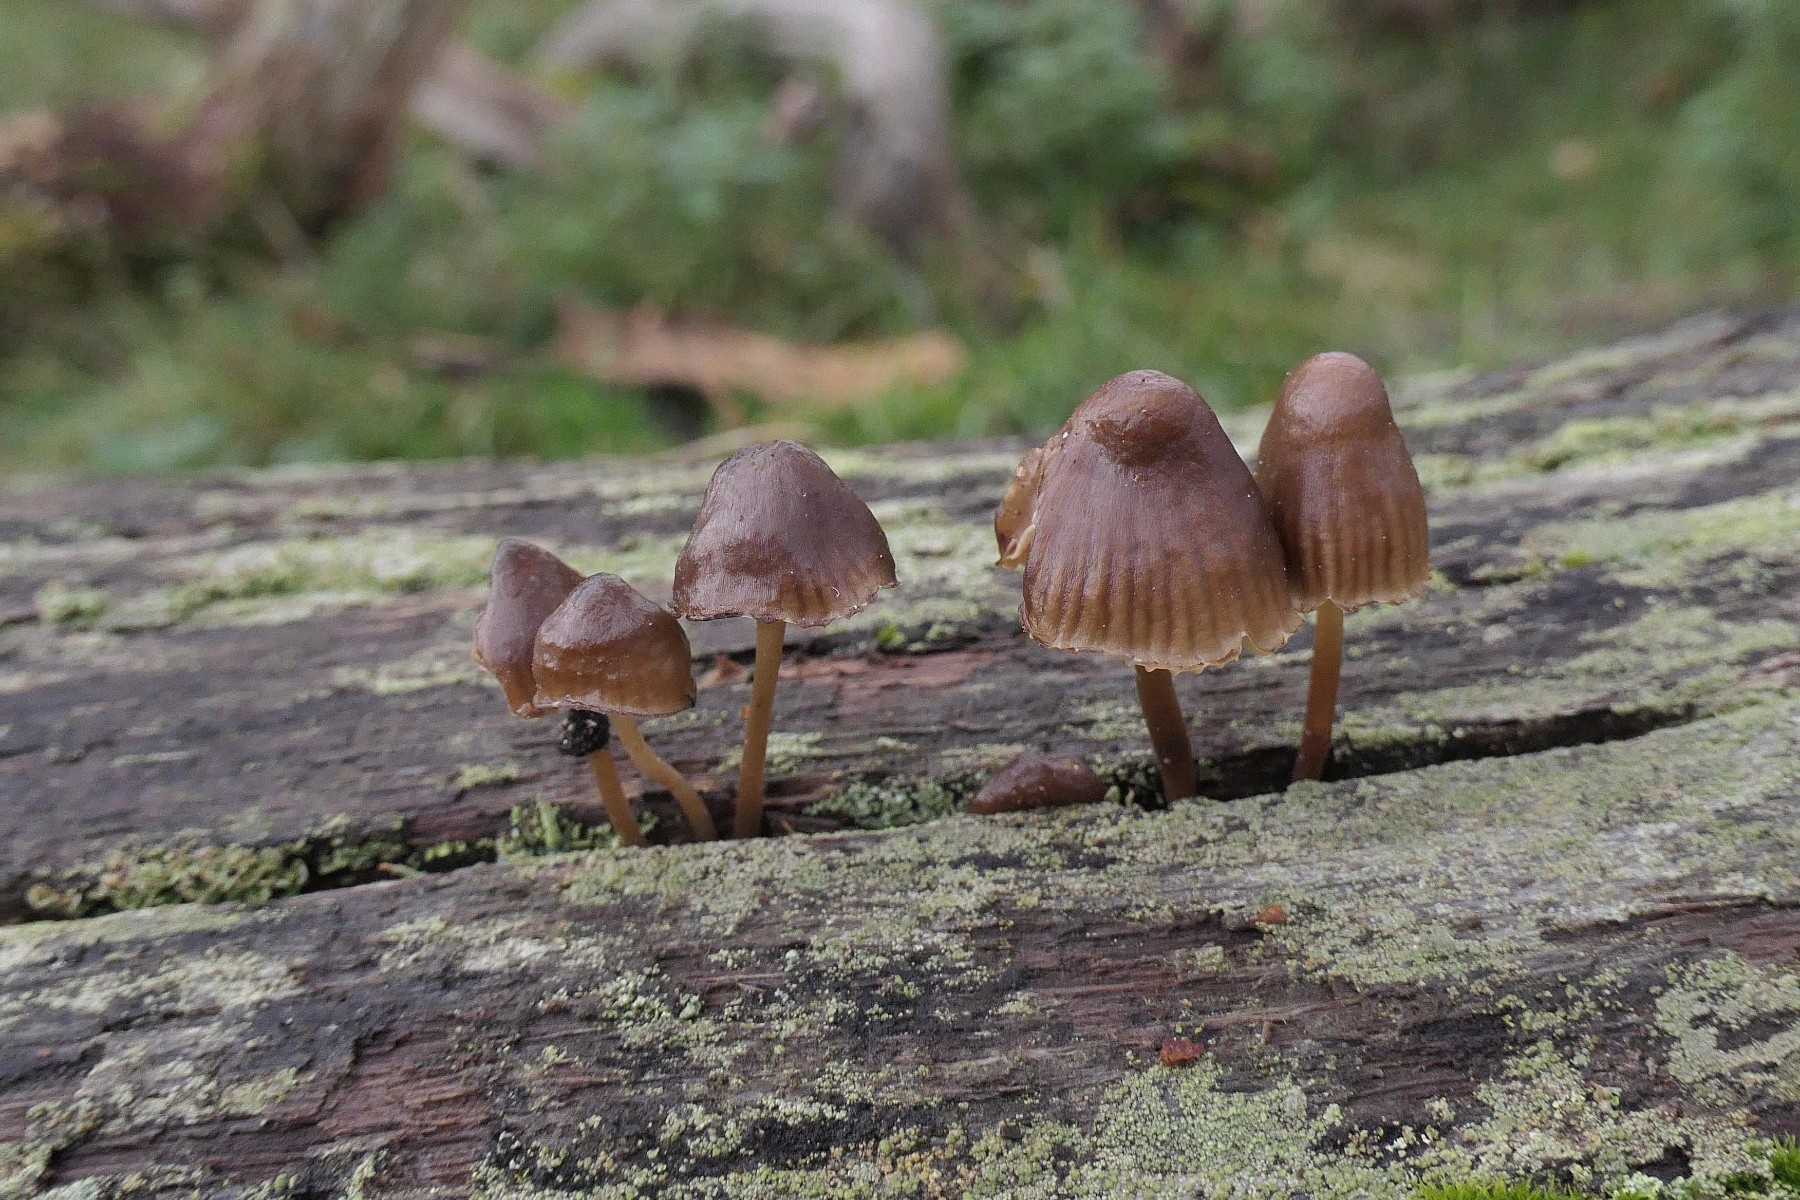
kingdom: Fungi
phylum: Basidiomycota
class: Agaricomycetes
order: Agaricales
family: Mycenaceae
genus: Mycena
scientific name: Mycena inclinata
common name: nikkende huesvamp
